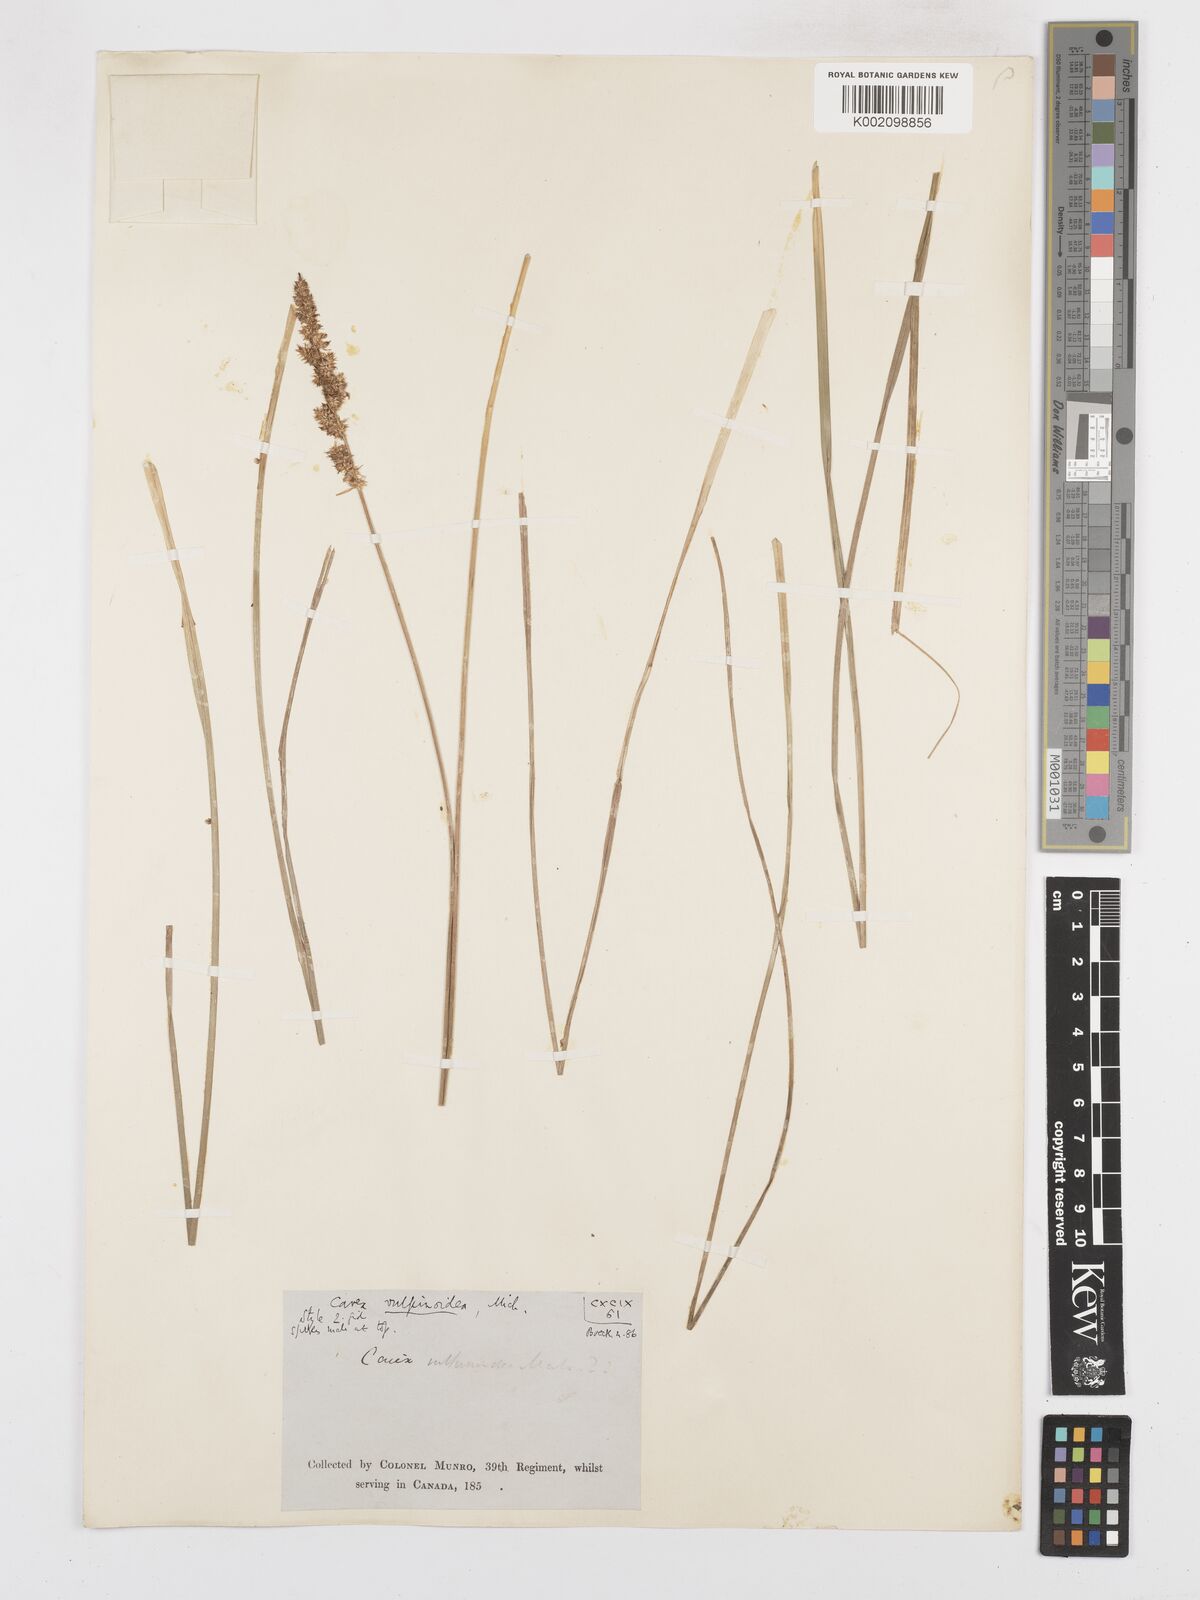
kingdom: Plantae
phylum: Tracheophyta
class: Liliopsida
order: Poales
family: Cyperaceae
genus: Carex
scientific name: Carex vulpinoidea
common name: American fox-sedge
